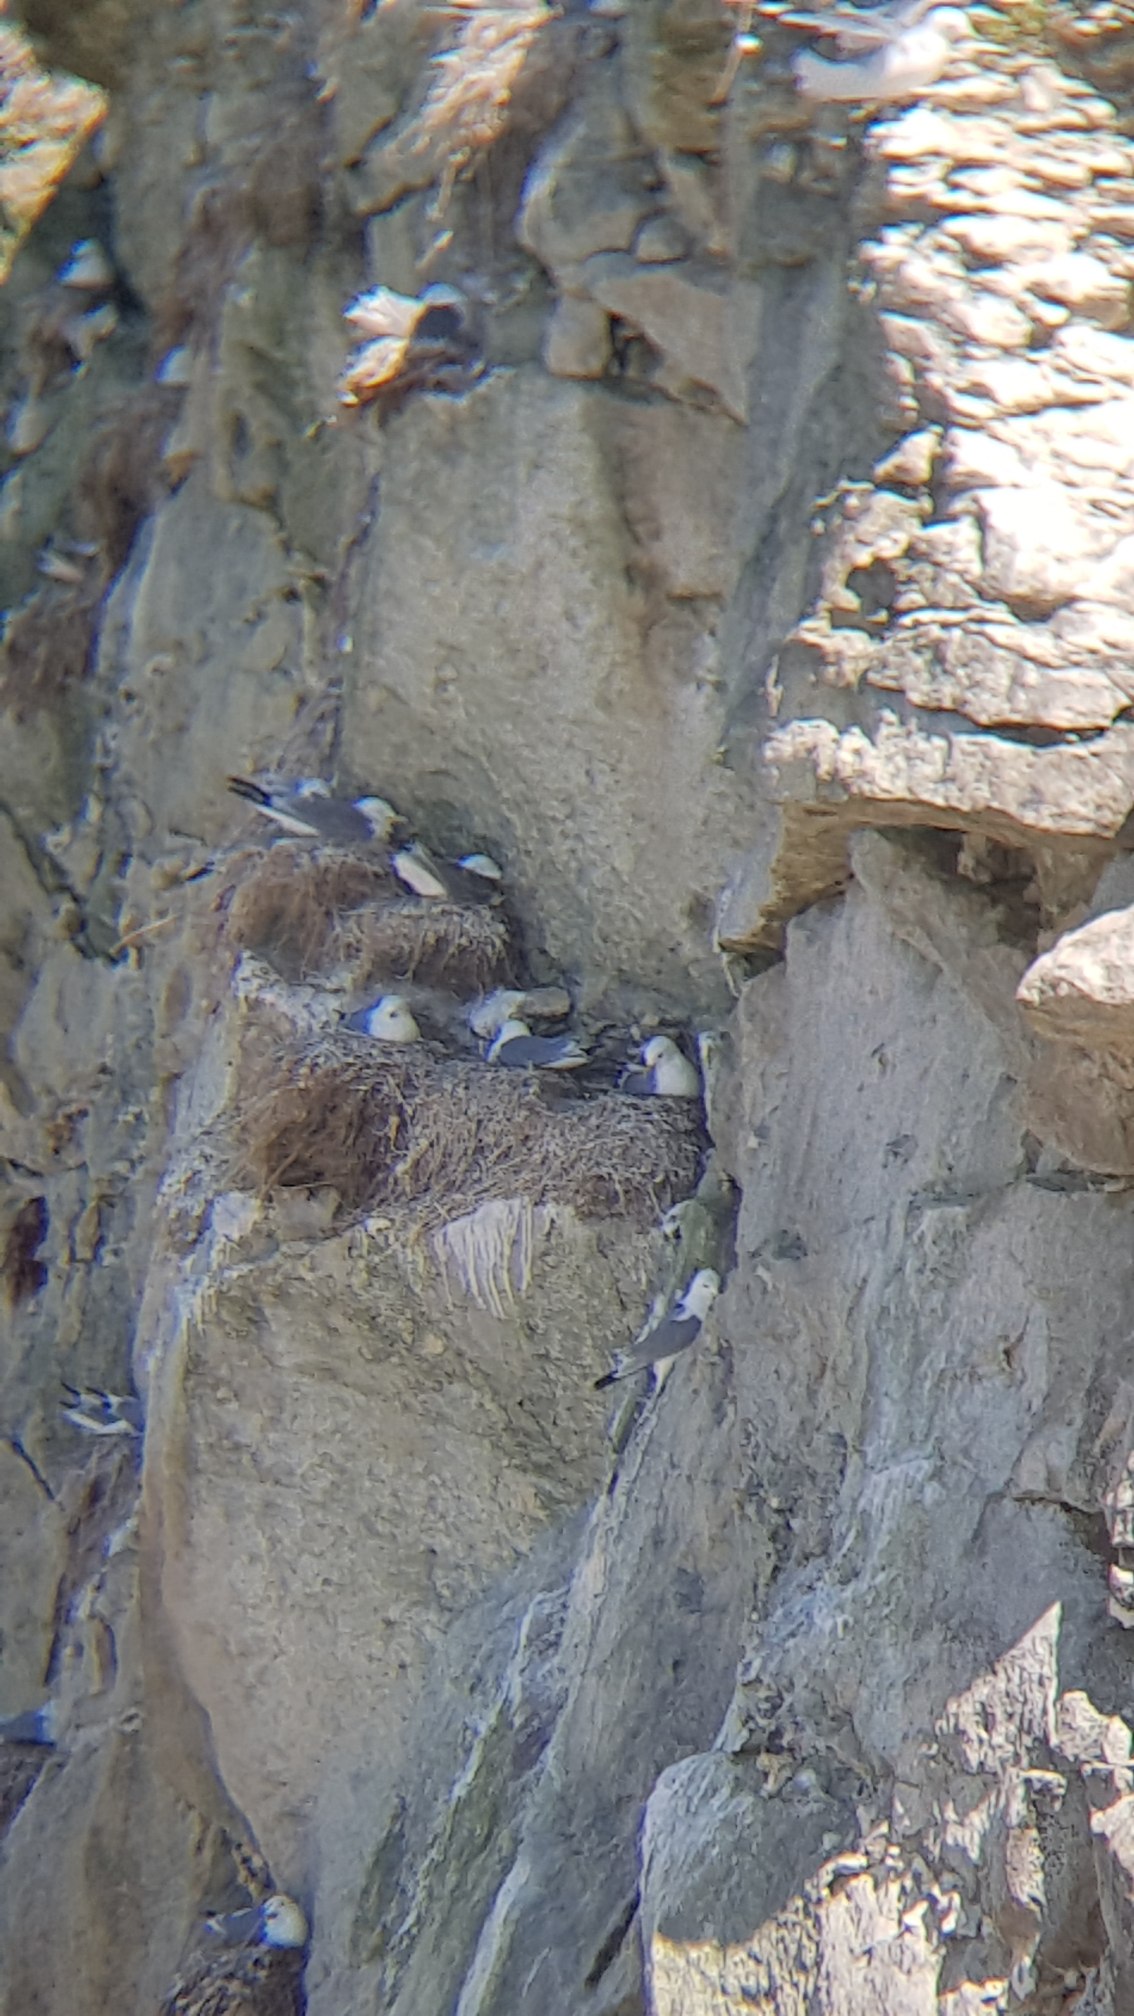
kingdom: Animalia
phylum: Chordata
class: Aves
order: Charadriiformes
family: Laridae
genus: Rissa
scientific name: Rissa tridactyla
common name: Ride
